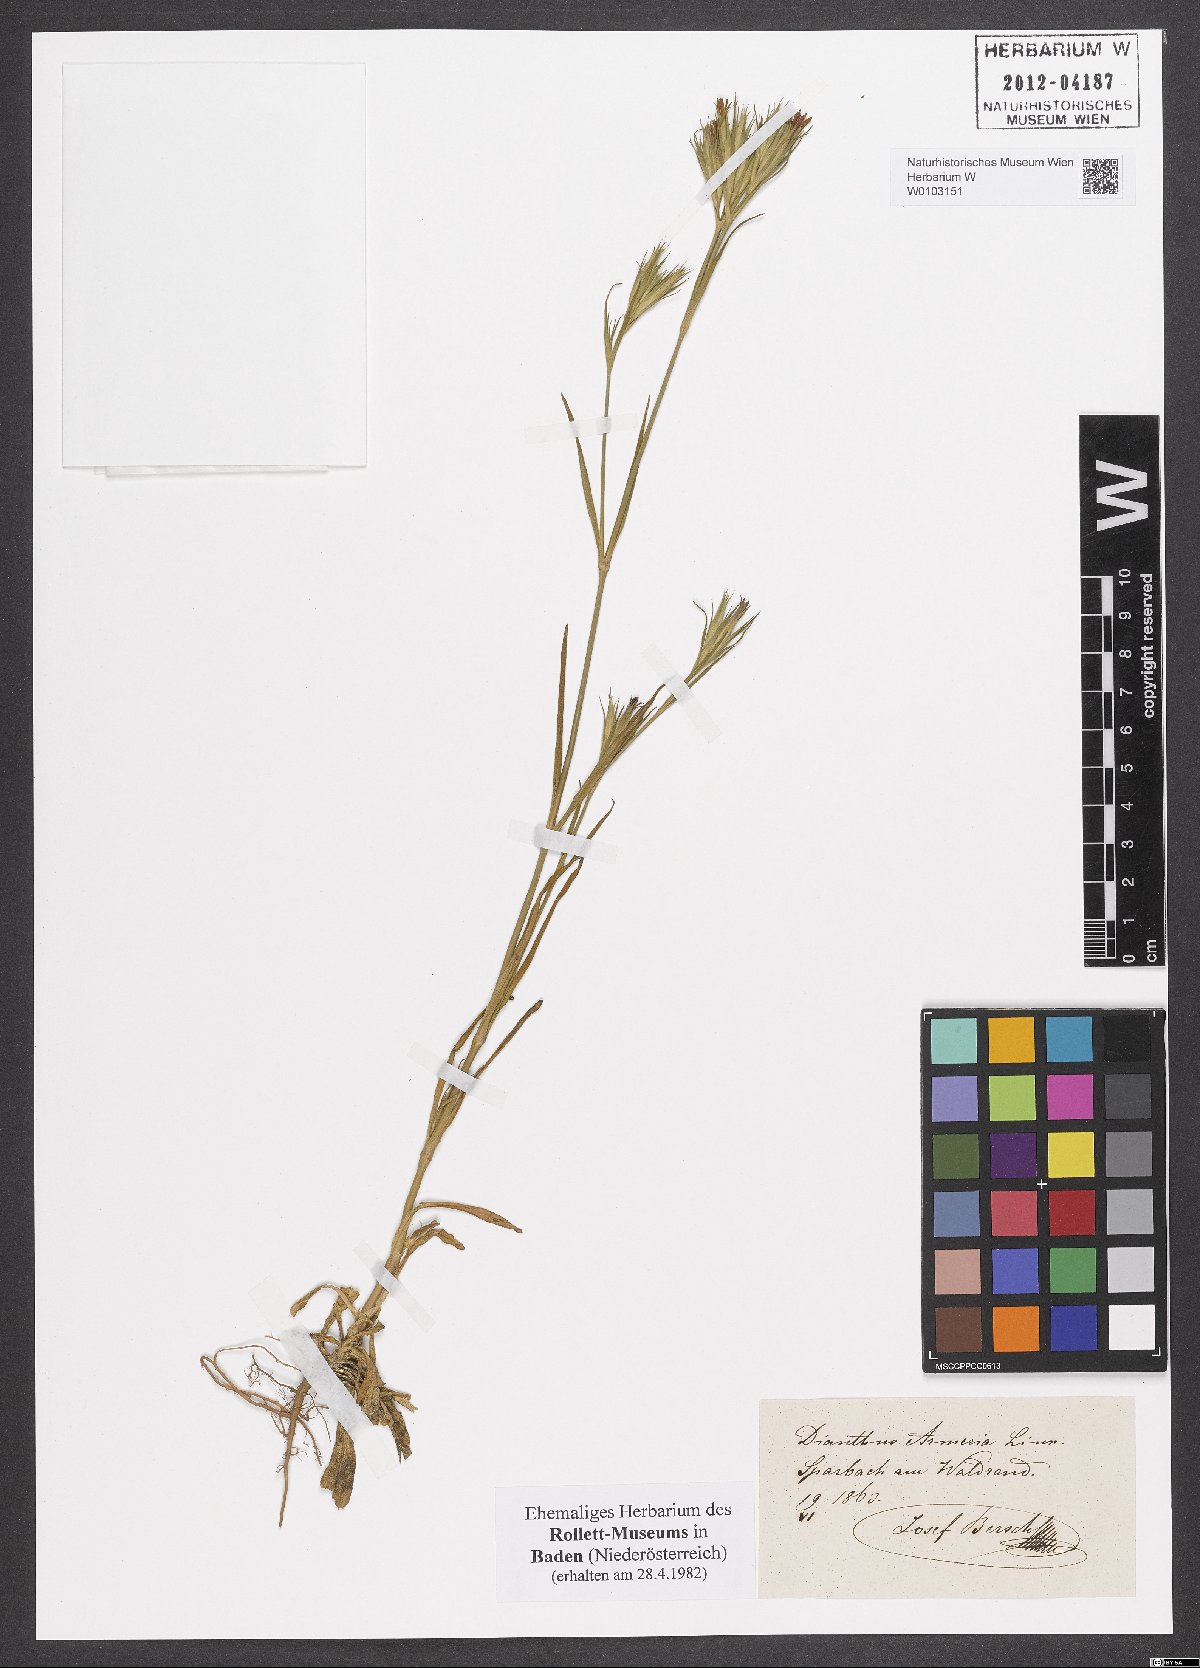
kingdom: Plantae
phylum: Tracheophyta
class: Magnoliopsida
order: Caryophyllales
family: Caryophyllaceae
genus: Dianthus
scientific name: Dianthus armeria
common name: Deptford pink
